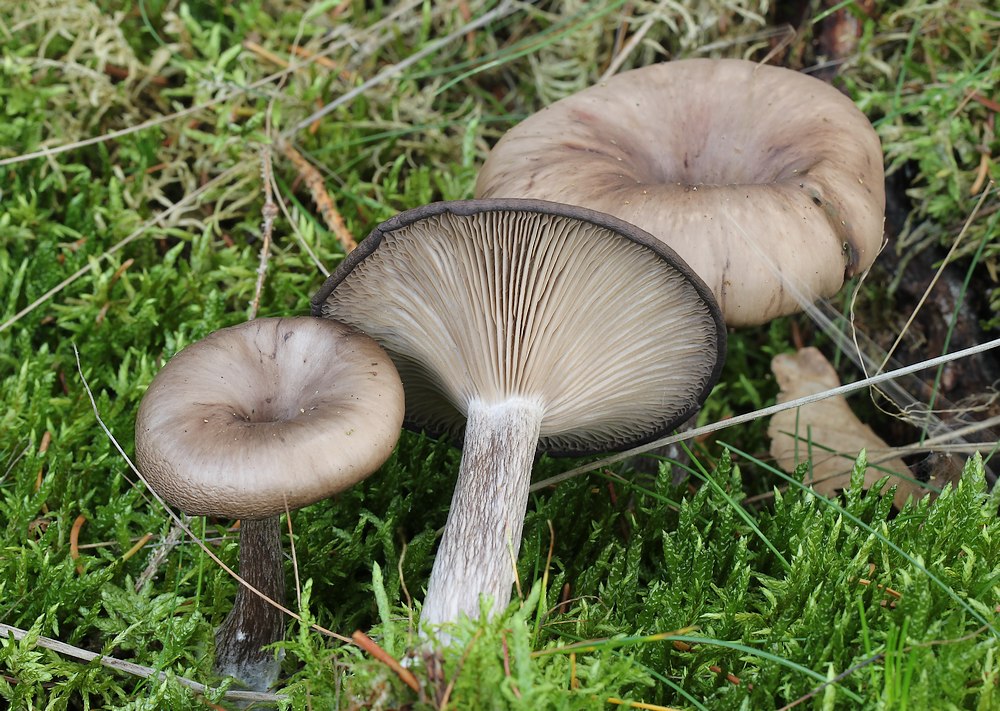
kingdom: Fungi
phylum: Basidiomycota
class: Agaricomycetes
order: Agaricales
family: Pseudoclitocybaceae
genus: Pseudoclitocybe
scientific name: Pseudoclitocybe cyathiformis
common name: almindelig bægertragthat
